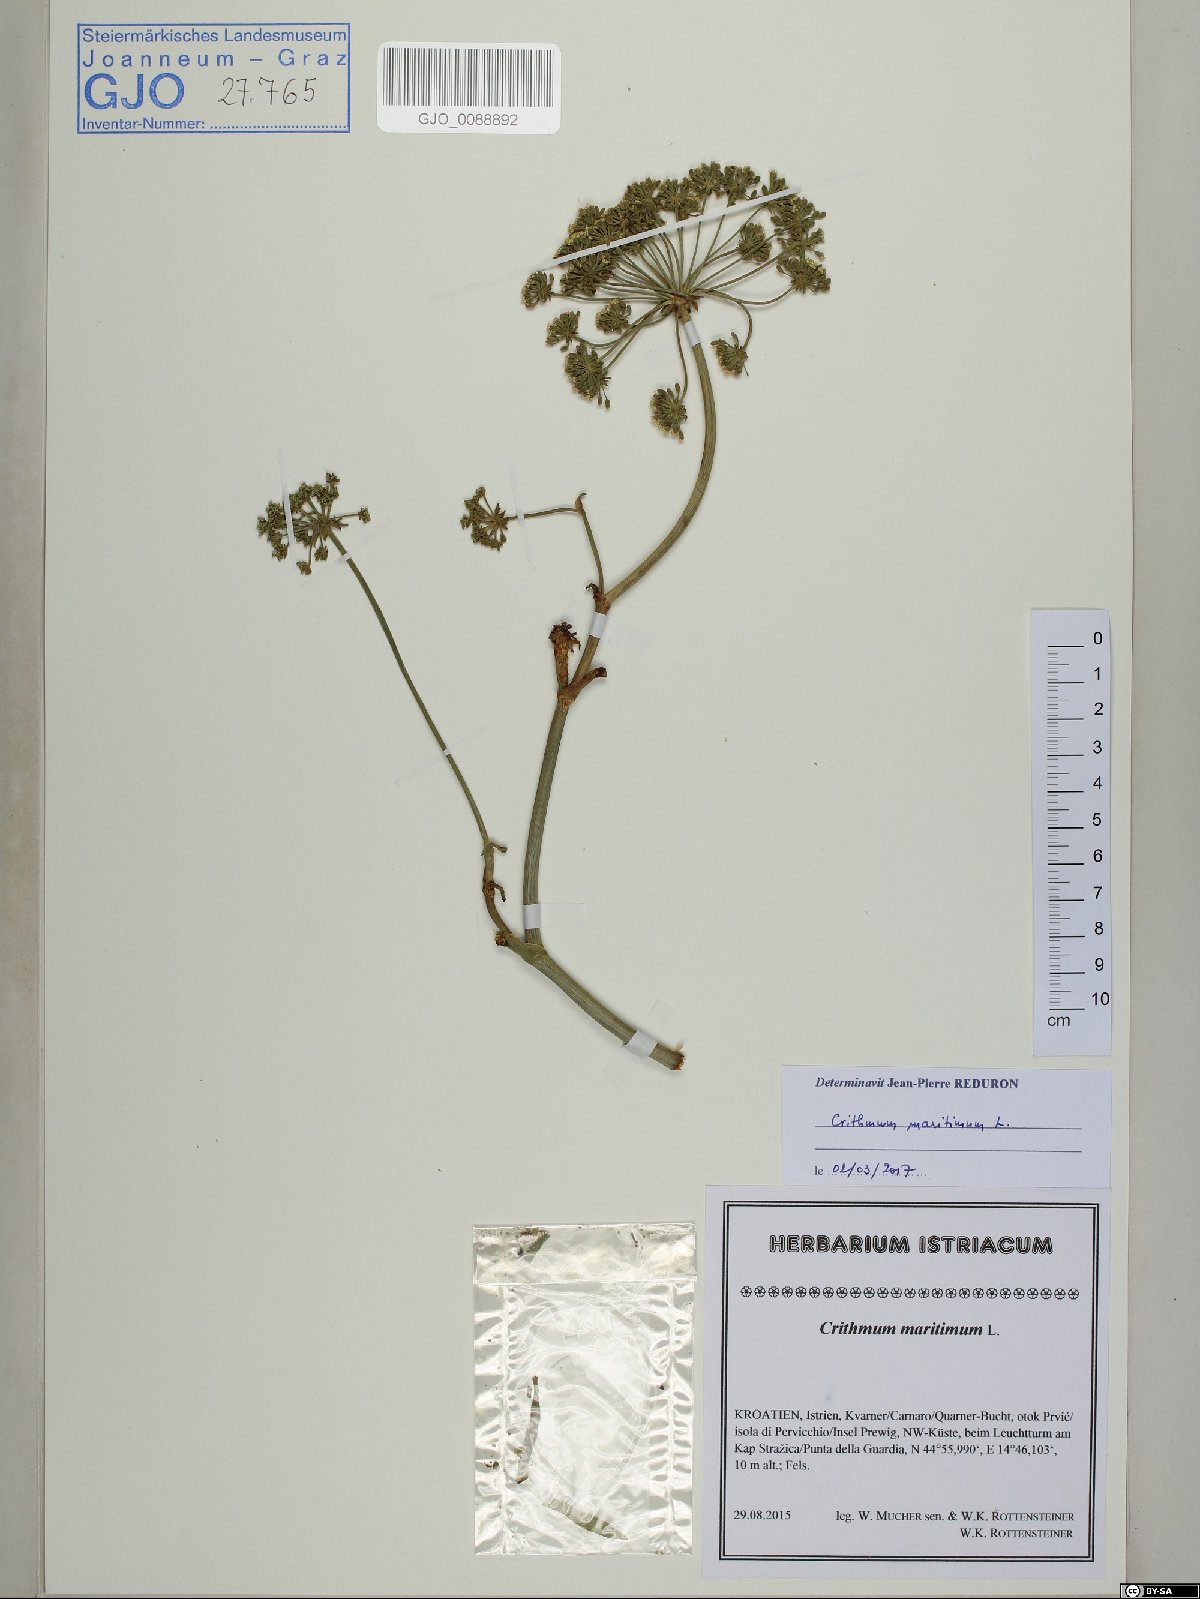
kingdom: Plantae
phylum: Tracheophyta
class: Magnoliopsida
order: Apiales
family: Apiaceae
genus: Crithmum
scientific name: Crithmum maritimum
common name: Rock samphire
